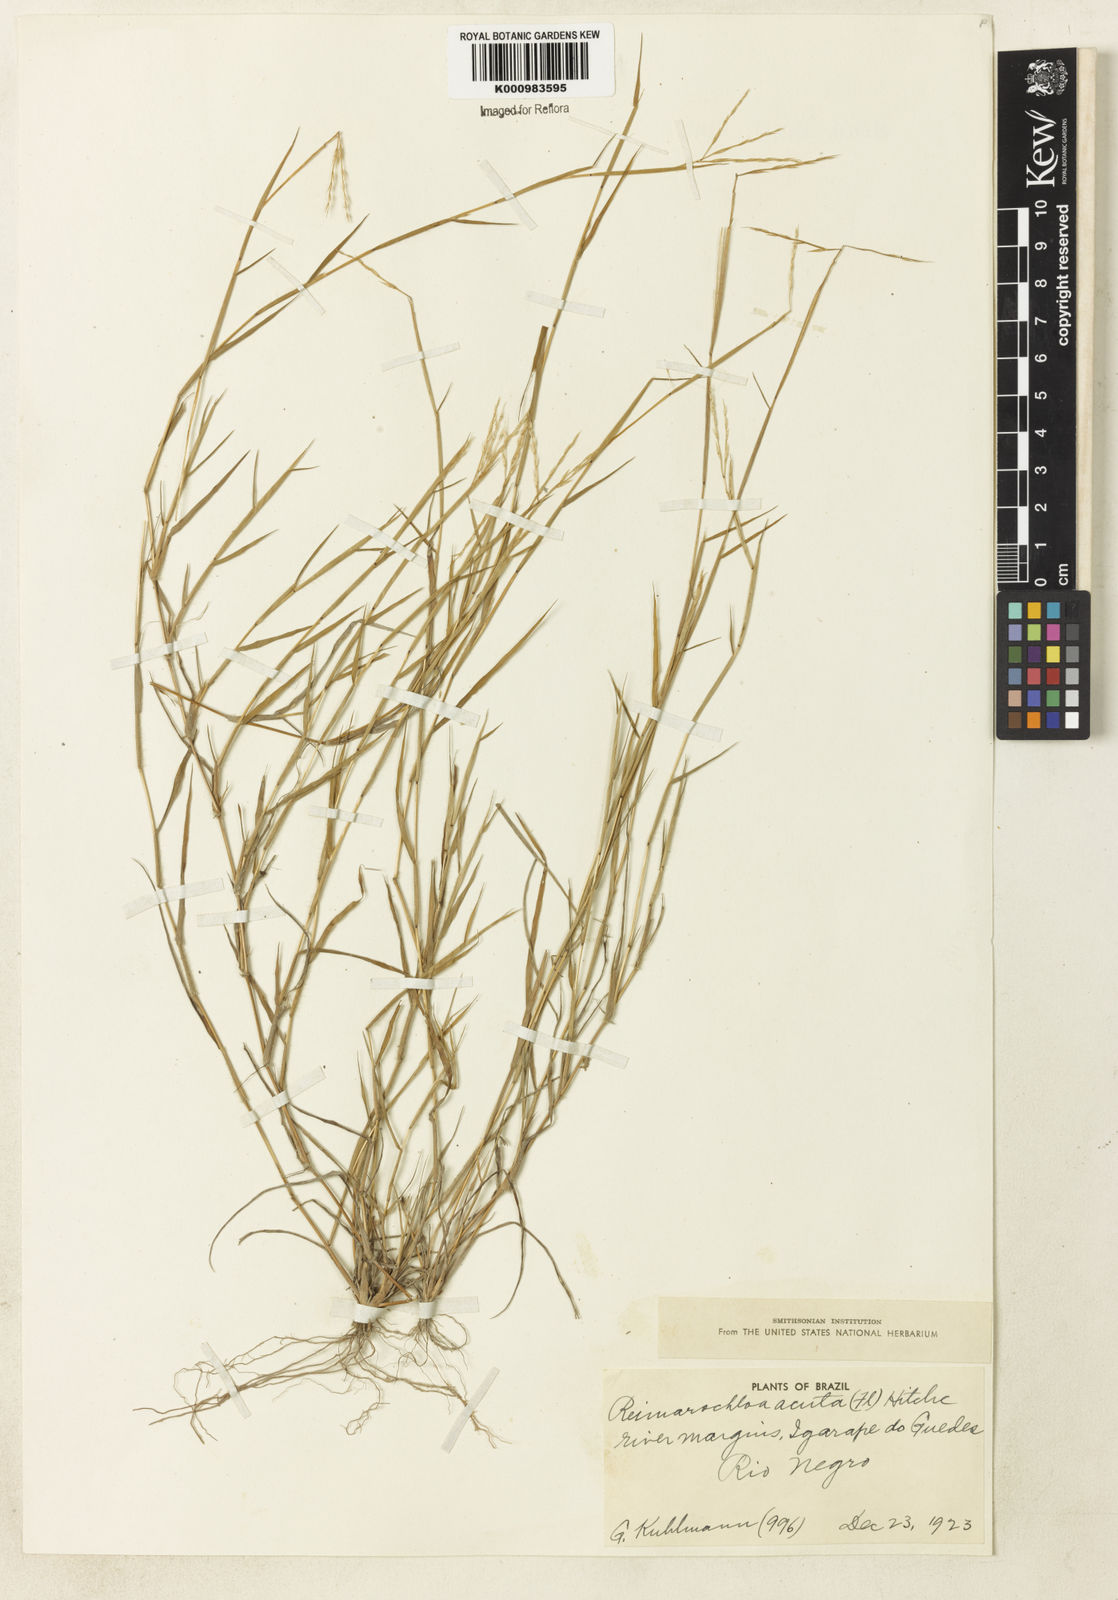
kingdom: Plantae
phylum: Tracheophyta
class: Liliopsida
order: Poales
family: Poaceae
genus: Paspalum
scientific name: Paspalum
